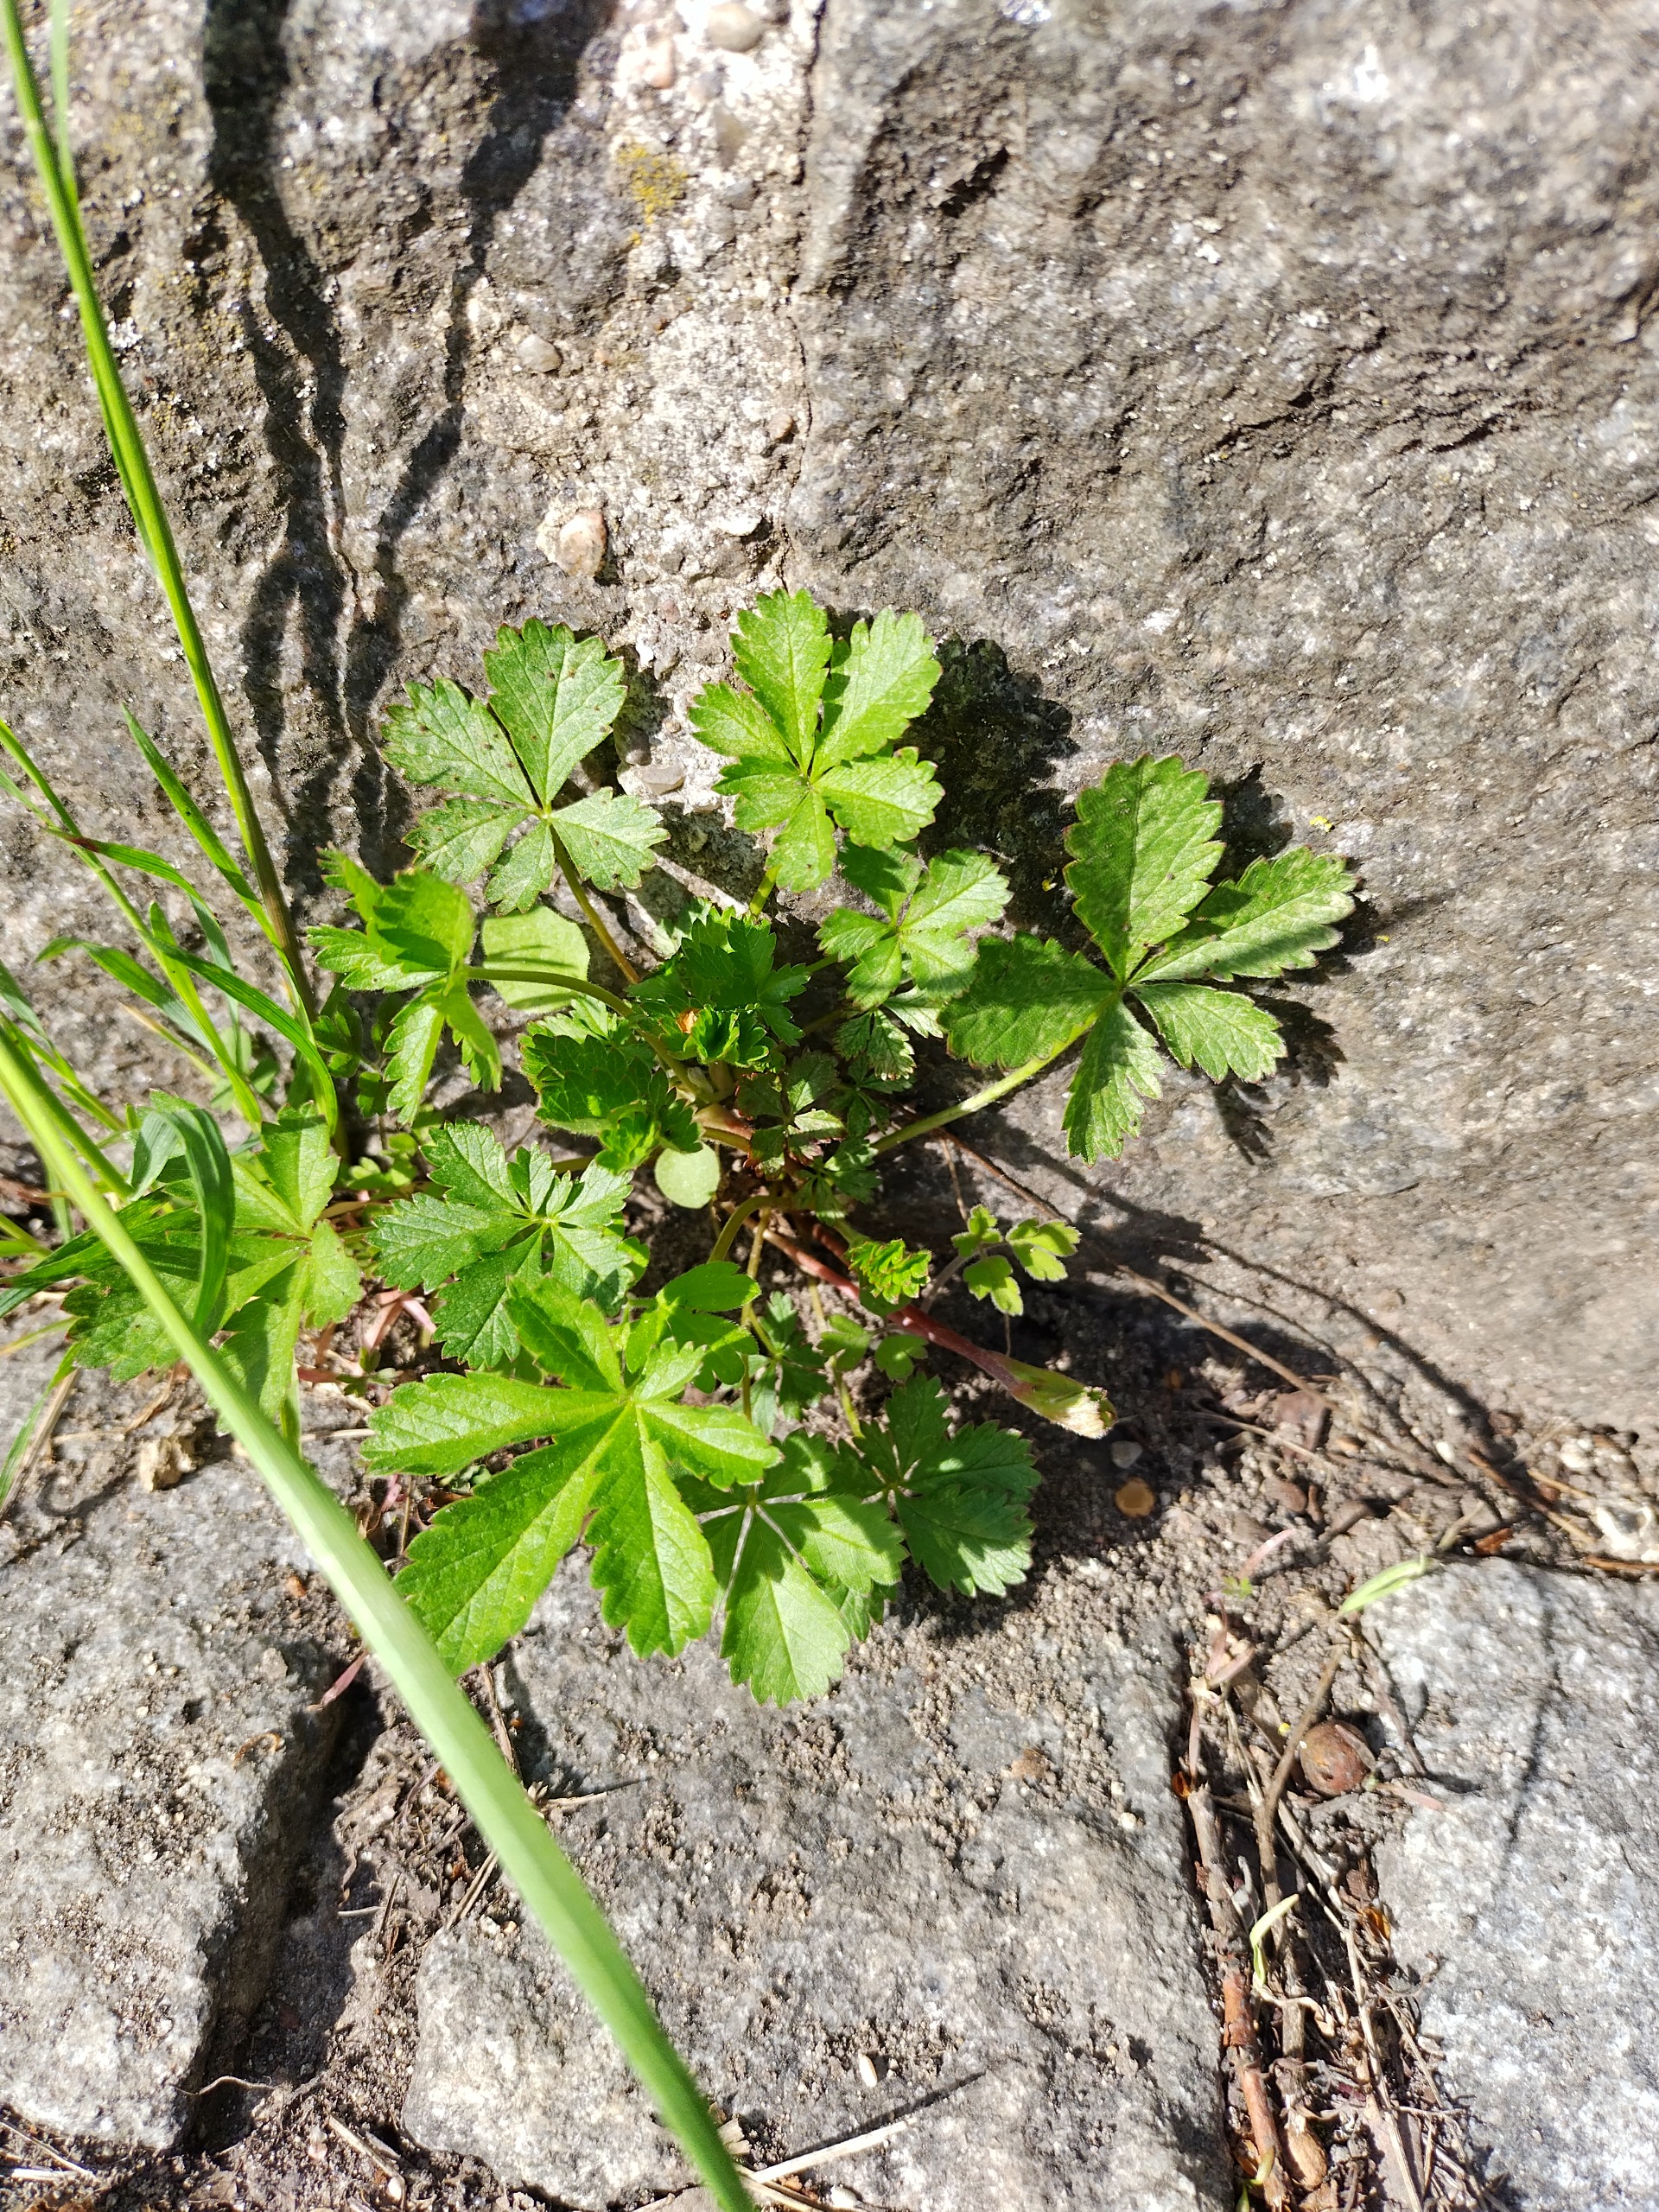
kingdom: Plantae
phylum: Tracheophyta
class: Magnoliopsida
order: Rosales
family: Rosaceae
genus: Potentilla
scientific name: Potentilla reptans
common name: Krybende potentil
